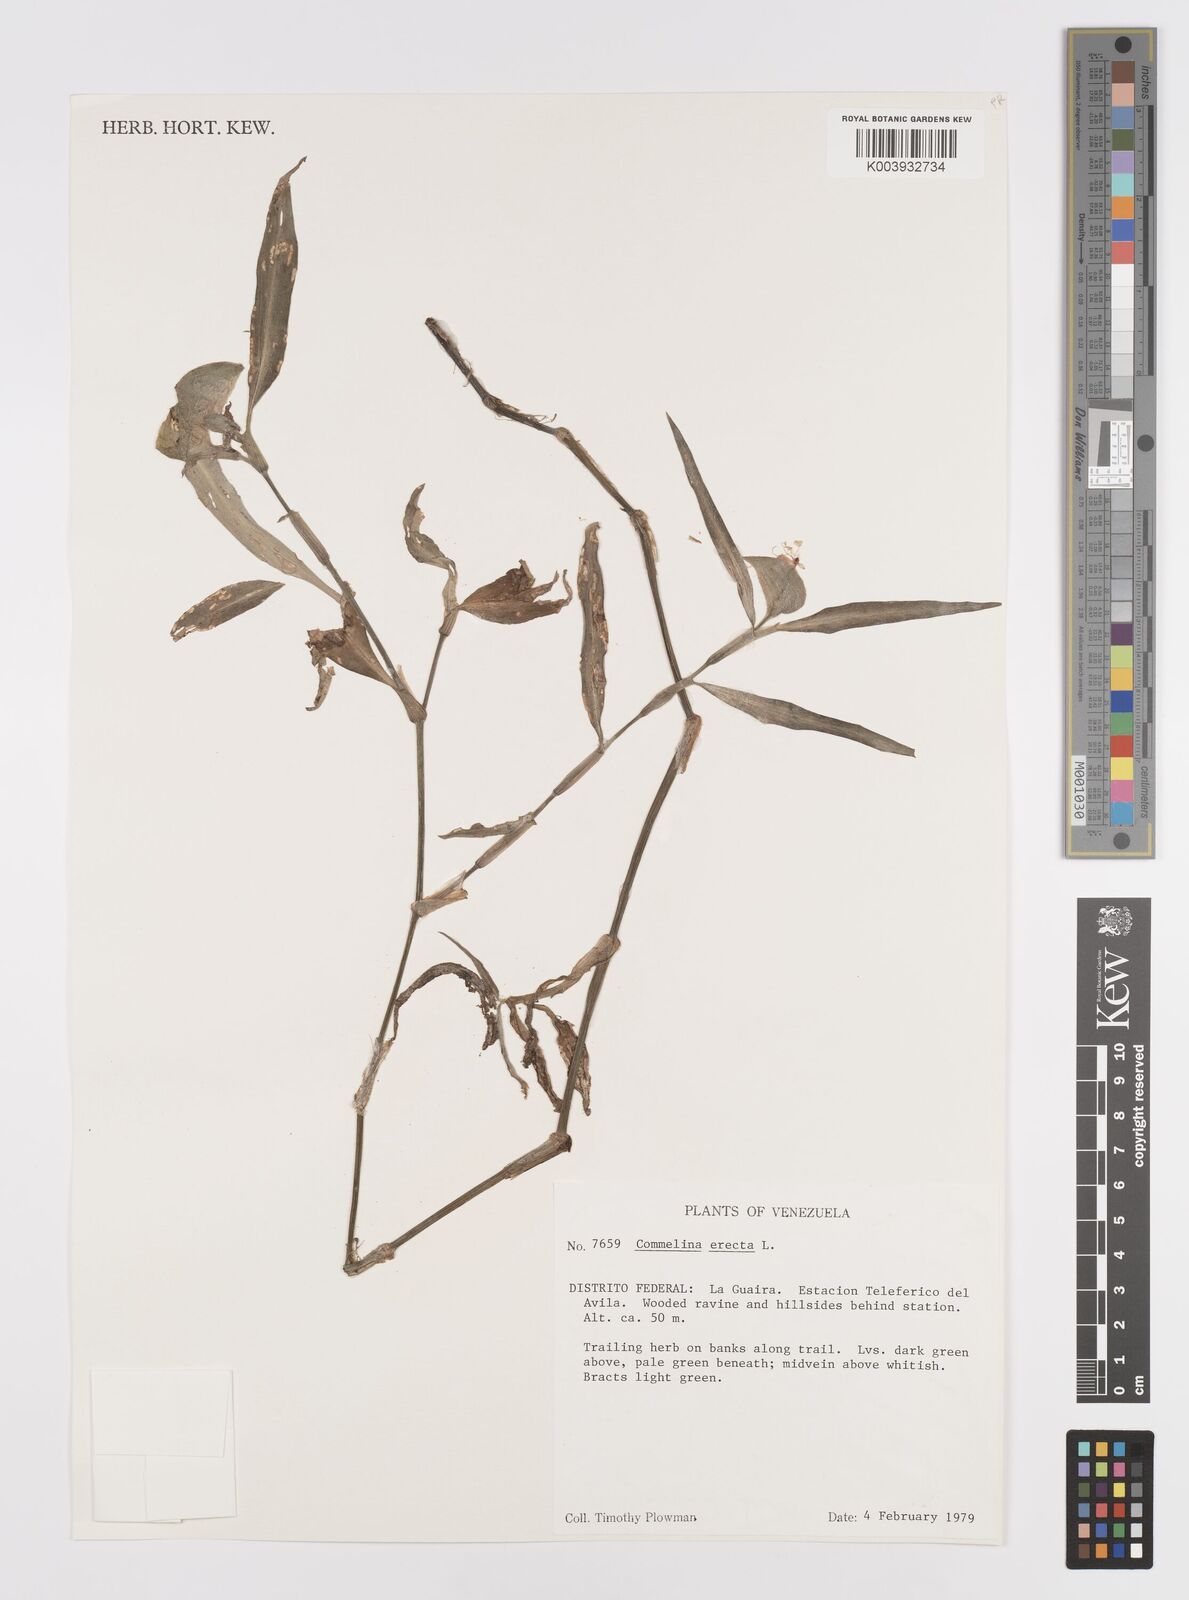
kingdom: Plantae
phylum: Tracheophyta
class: Liliopsida
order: Commelinales
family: Commelinaceae
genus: Commelina
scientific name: Commelina erecta
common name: Blousel blommetjie
